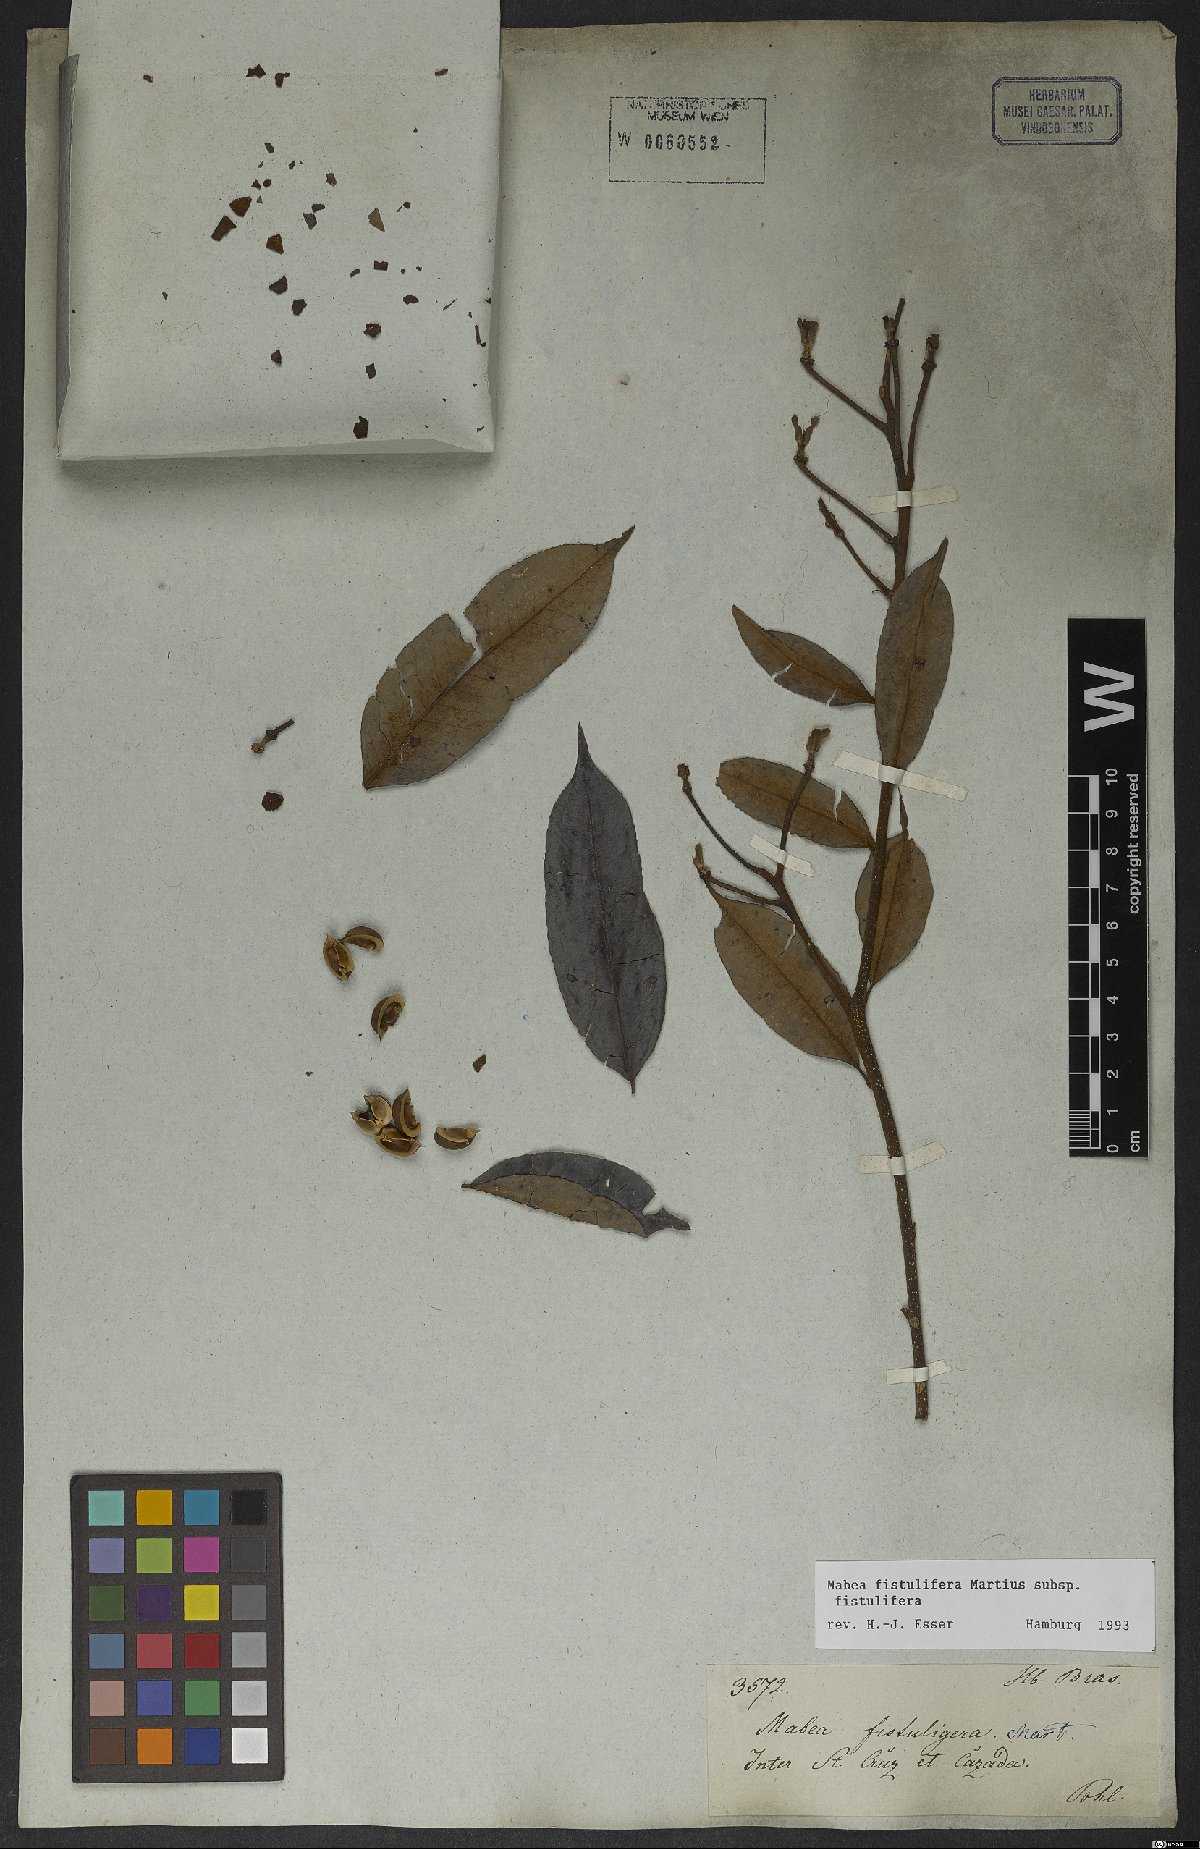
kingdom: Plantae
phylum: Tracheophyta
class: Magnoliopsida
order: Malpighiales
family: Euphorbiaceae
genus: Mabea
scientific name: Mabea fistulifera
